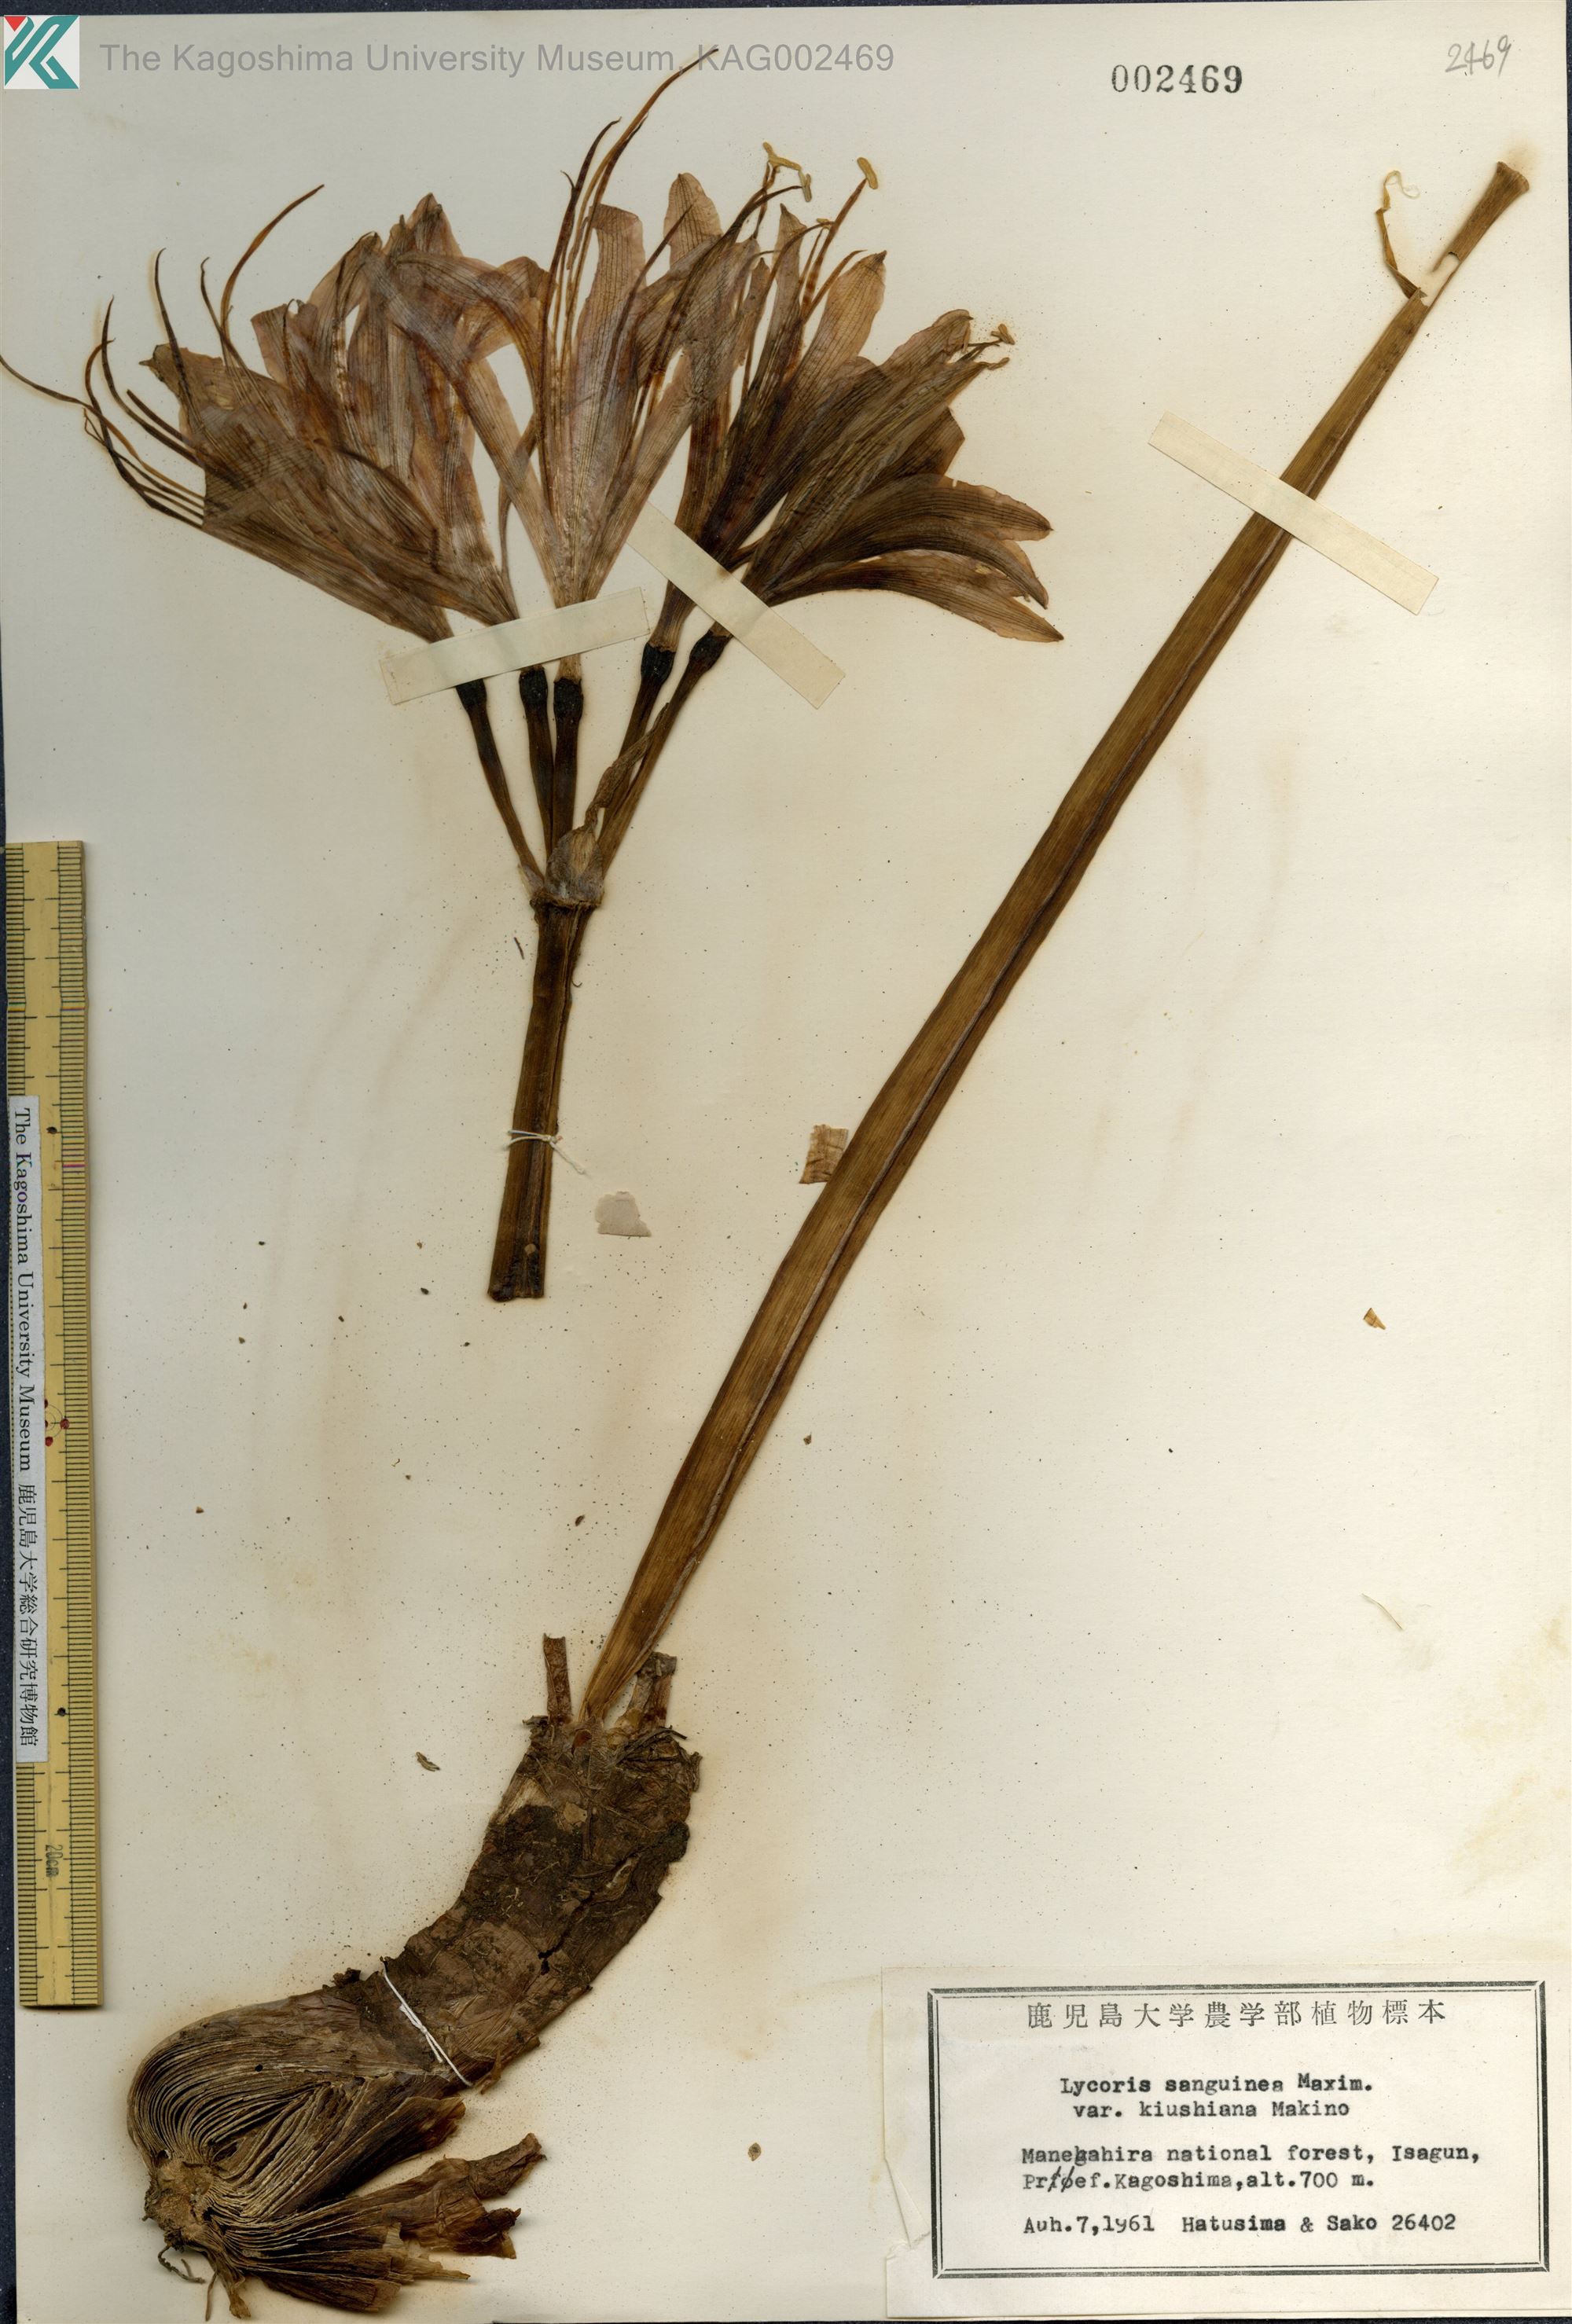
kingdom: Plantae
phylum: Tracheophyta
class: Liliopsida
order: Asparagales
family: Amaryllidaceae
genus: Lycoris
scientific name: Lycoris sanguinea
